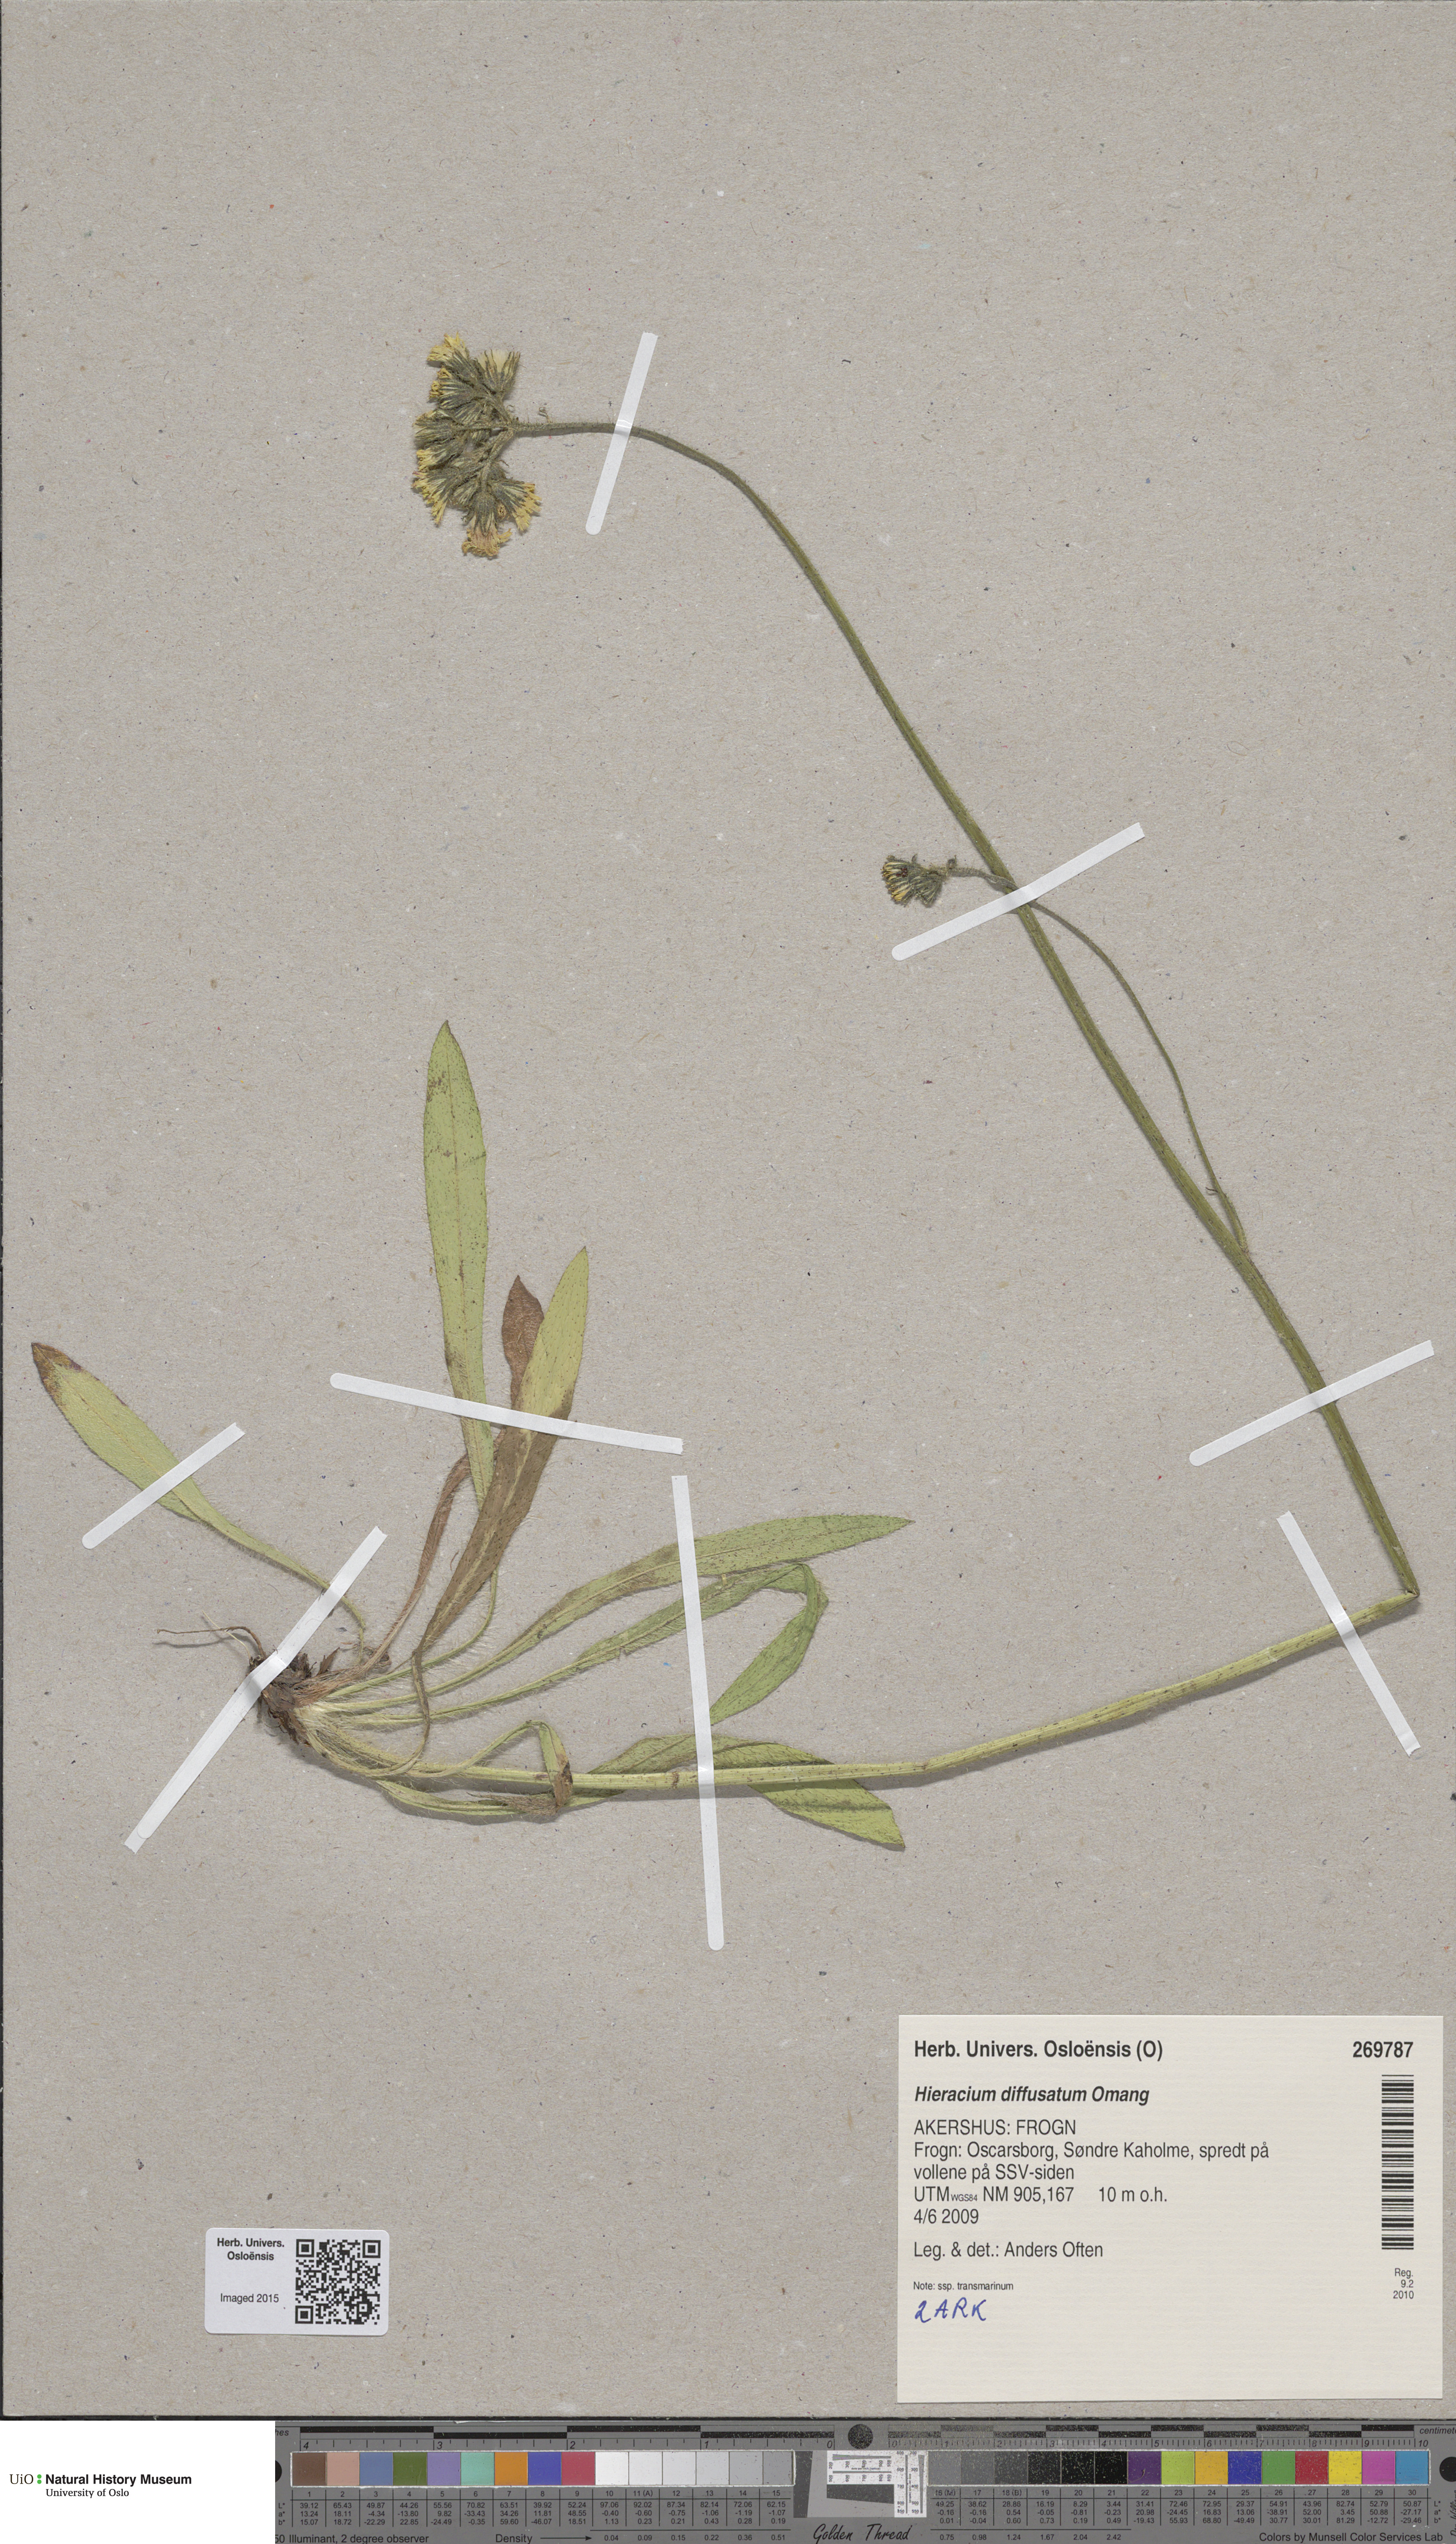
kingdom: Plantae
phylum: Tracheophyta
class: Magnoliopsida
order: Asterales
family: Asteraceae
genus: Pilosella
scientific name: Pilosella dubia
